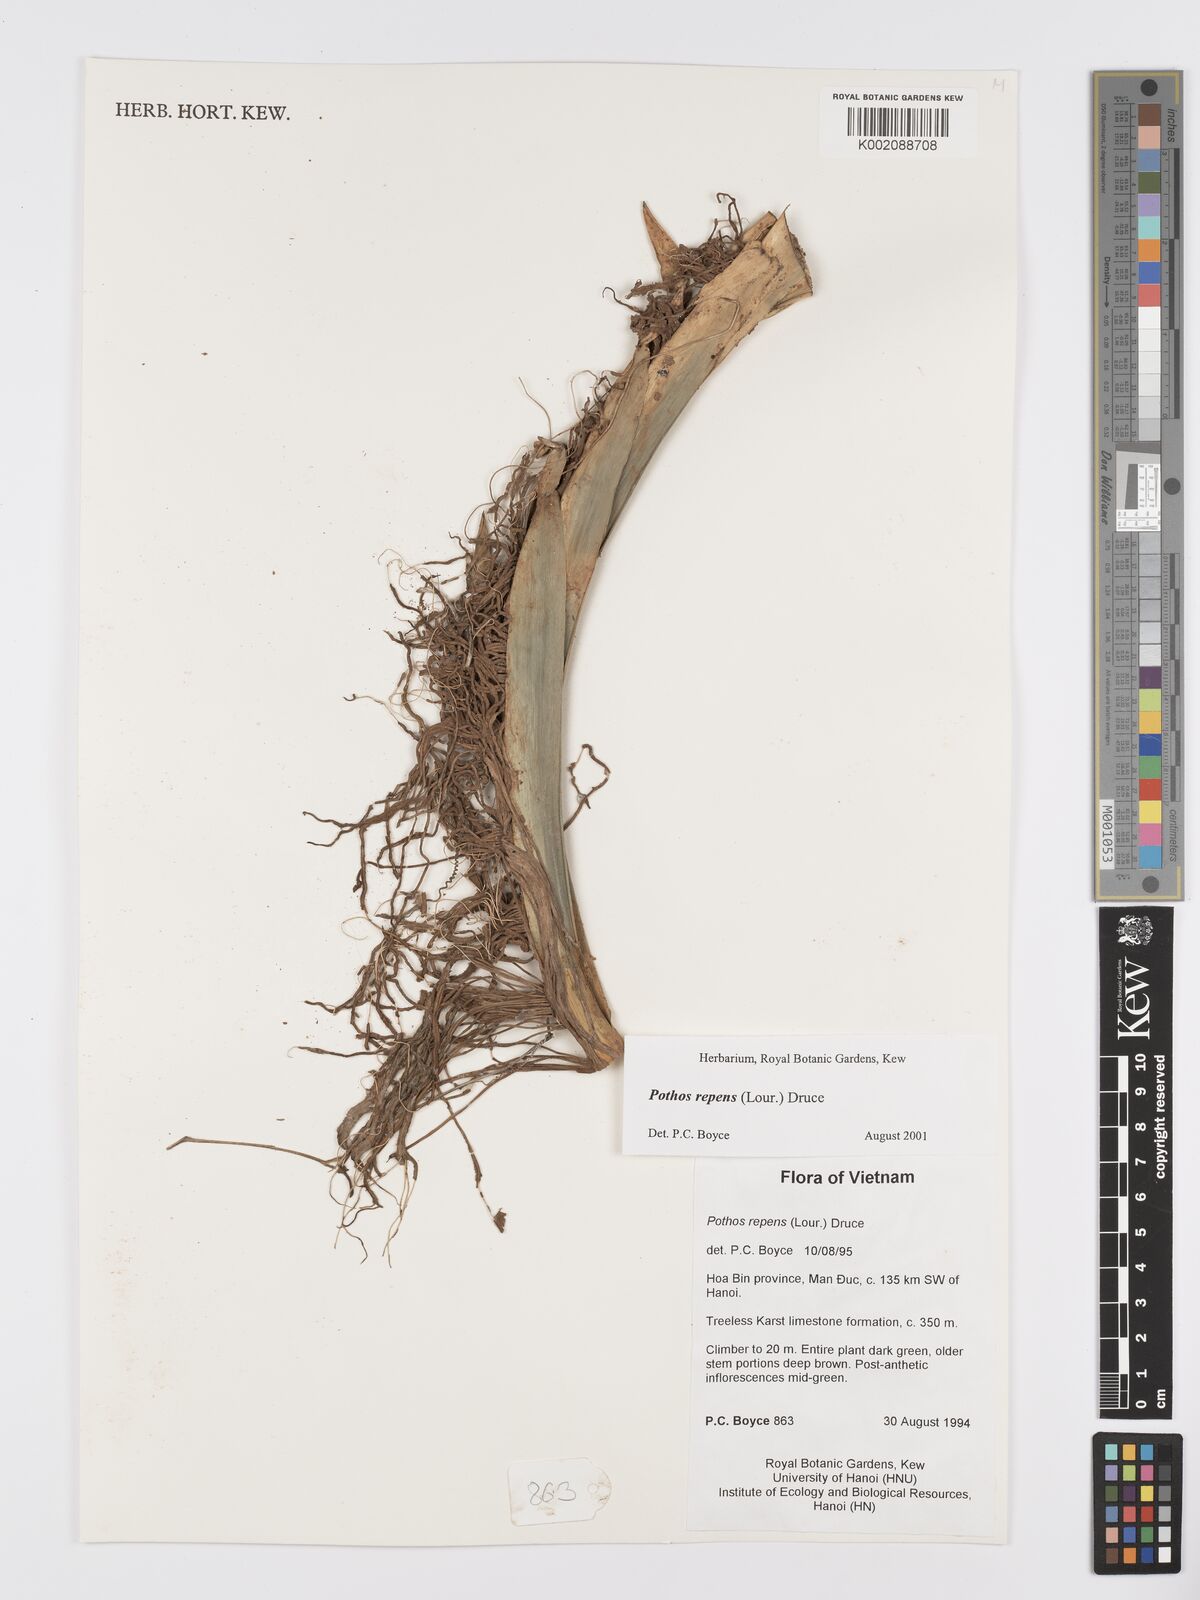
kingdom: Plantae
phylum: Tracheophyta
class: Liliopsida
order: Alismatales
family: Araceae
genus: Pothos
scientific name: Pothos repens
